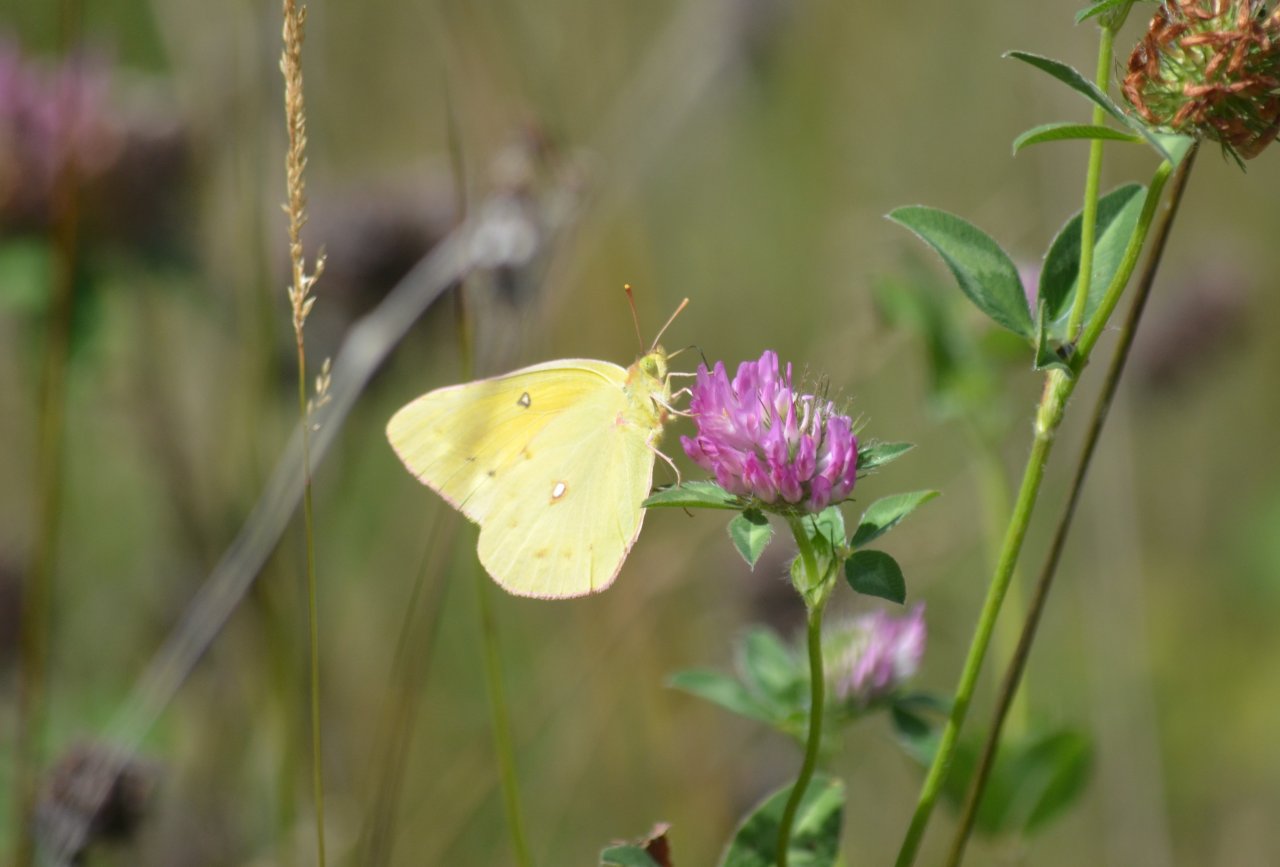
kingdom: Animalia
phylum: Arthropoda
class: Insecta
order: Lepidoptera
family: Pieridae
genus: Colias
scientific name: Colias eurytheme
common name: Orange Sulphur
